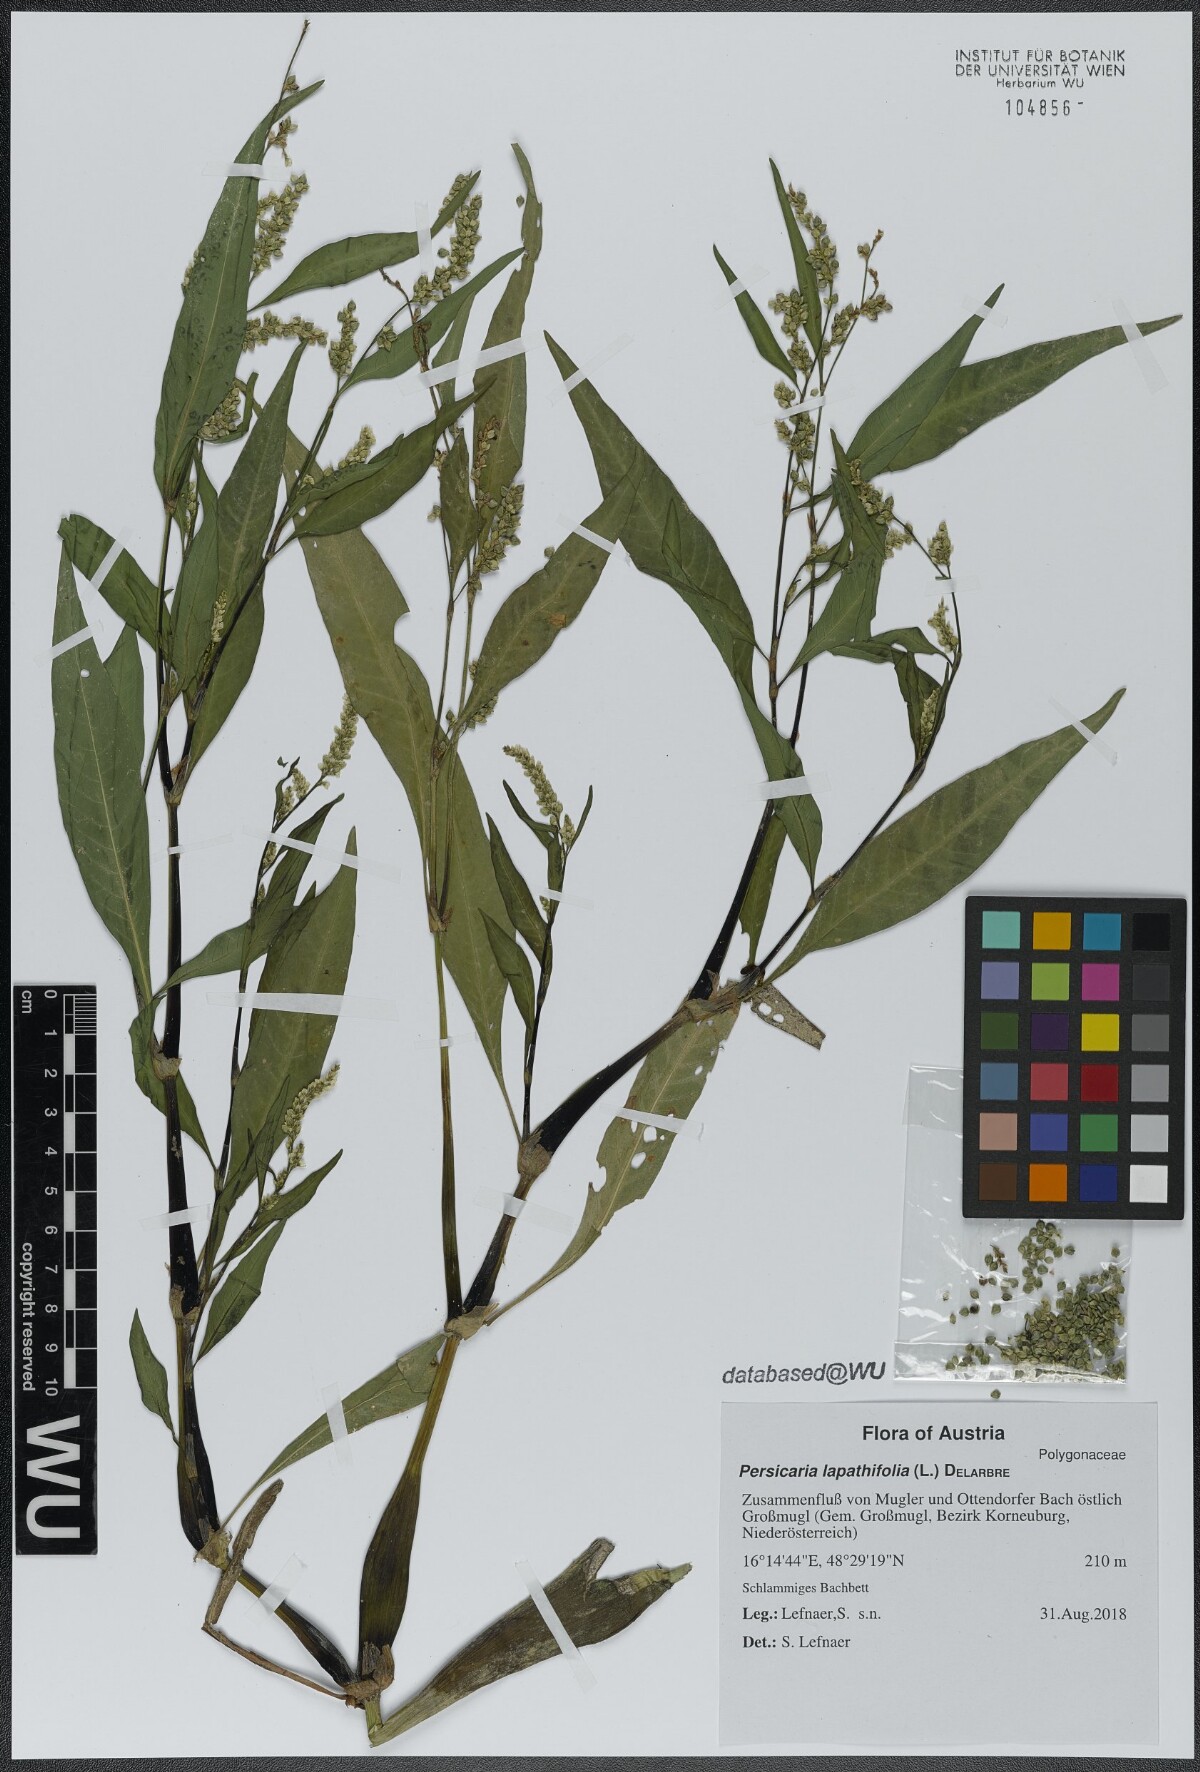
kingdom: Plantae
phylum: Tracheophyta
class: Magnoliopsida
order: Caryophyllales
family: Polygonaceae
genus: Persicaria
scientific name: Persicaria lapathifolia
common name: Curlytop knotweed
